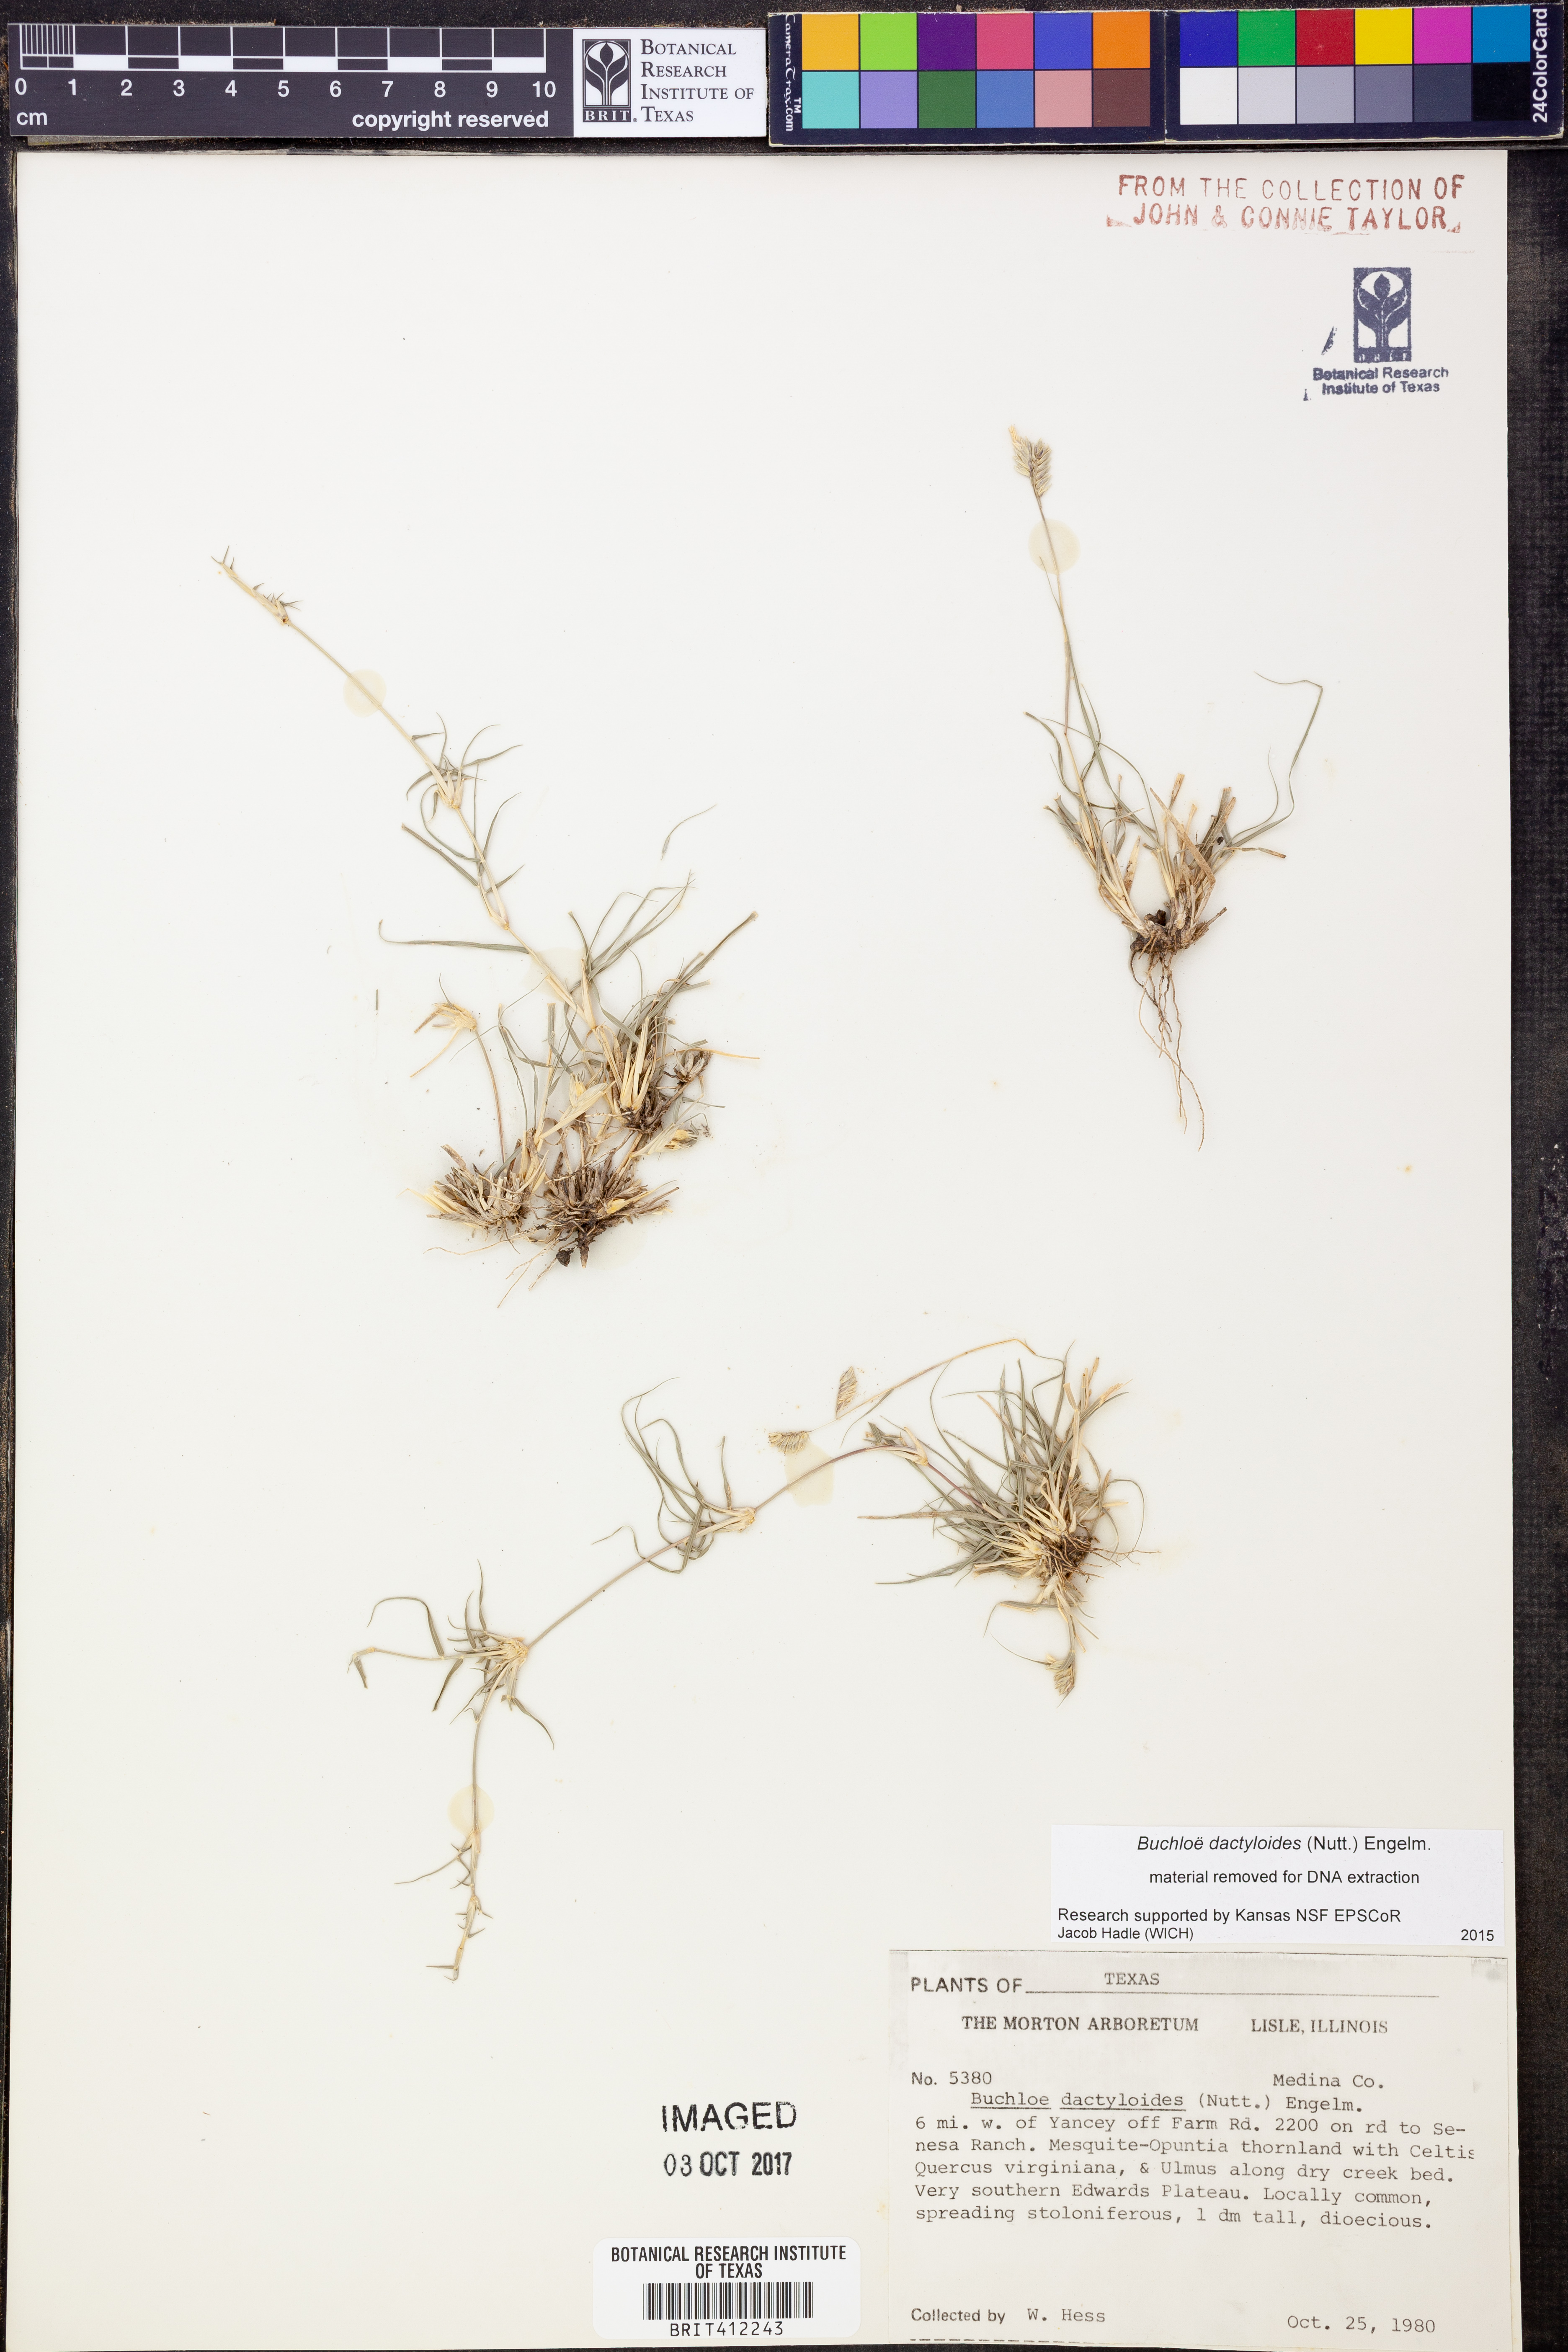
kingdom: Plantae
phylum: Tracheophyta
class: Liliopsida
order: Poales
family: Poaceae
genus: Bouteloua
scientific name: Bouteloua dactyloides
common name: Buffalo grass
